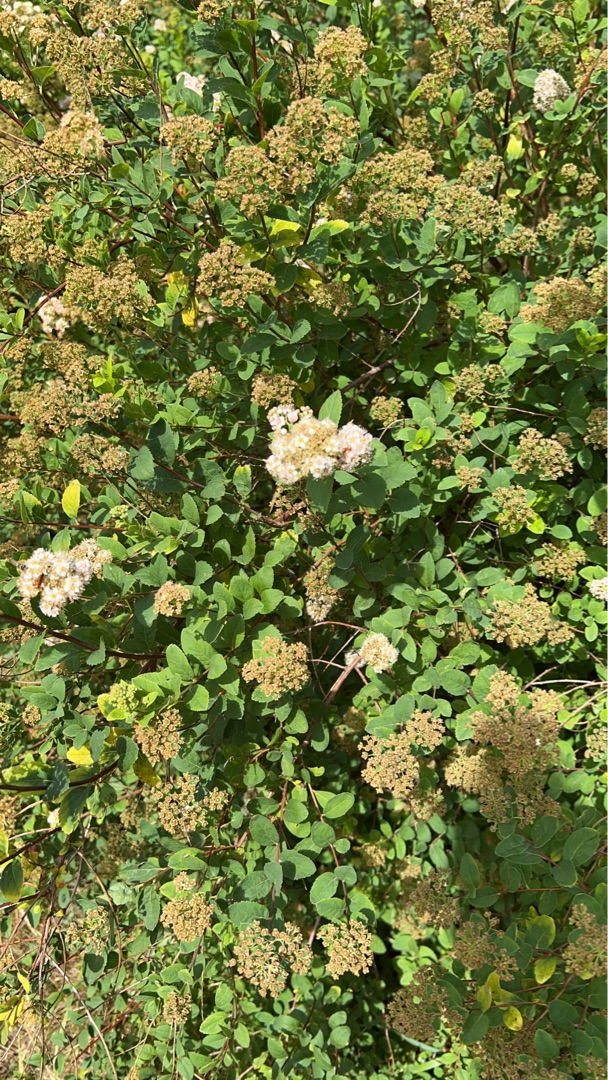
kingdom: Plantae
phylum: Tracheophyta
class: Magnoliopsida
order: Rosales
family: Rosaceae
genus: Spiraea
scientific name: Spiraea alba
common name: Hvid spiræa
